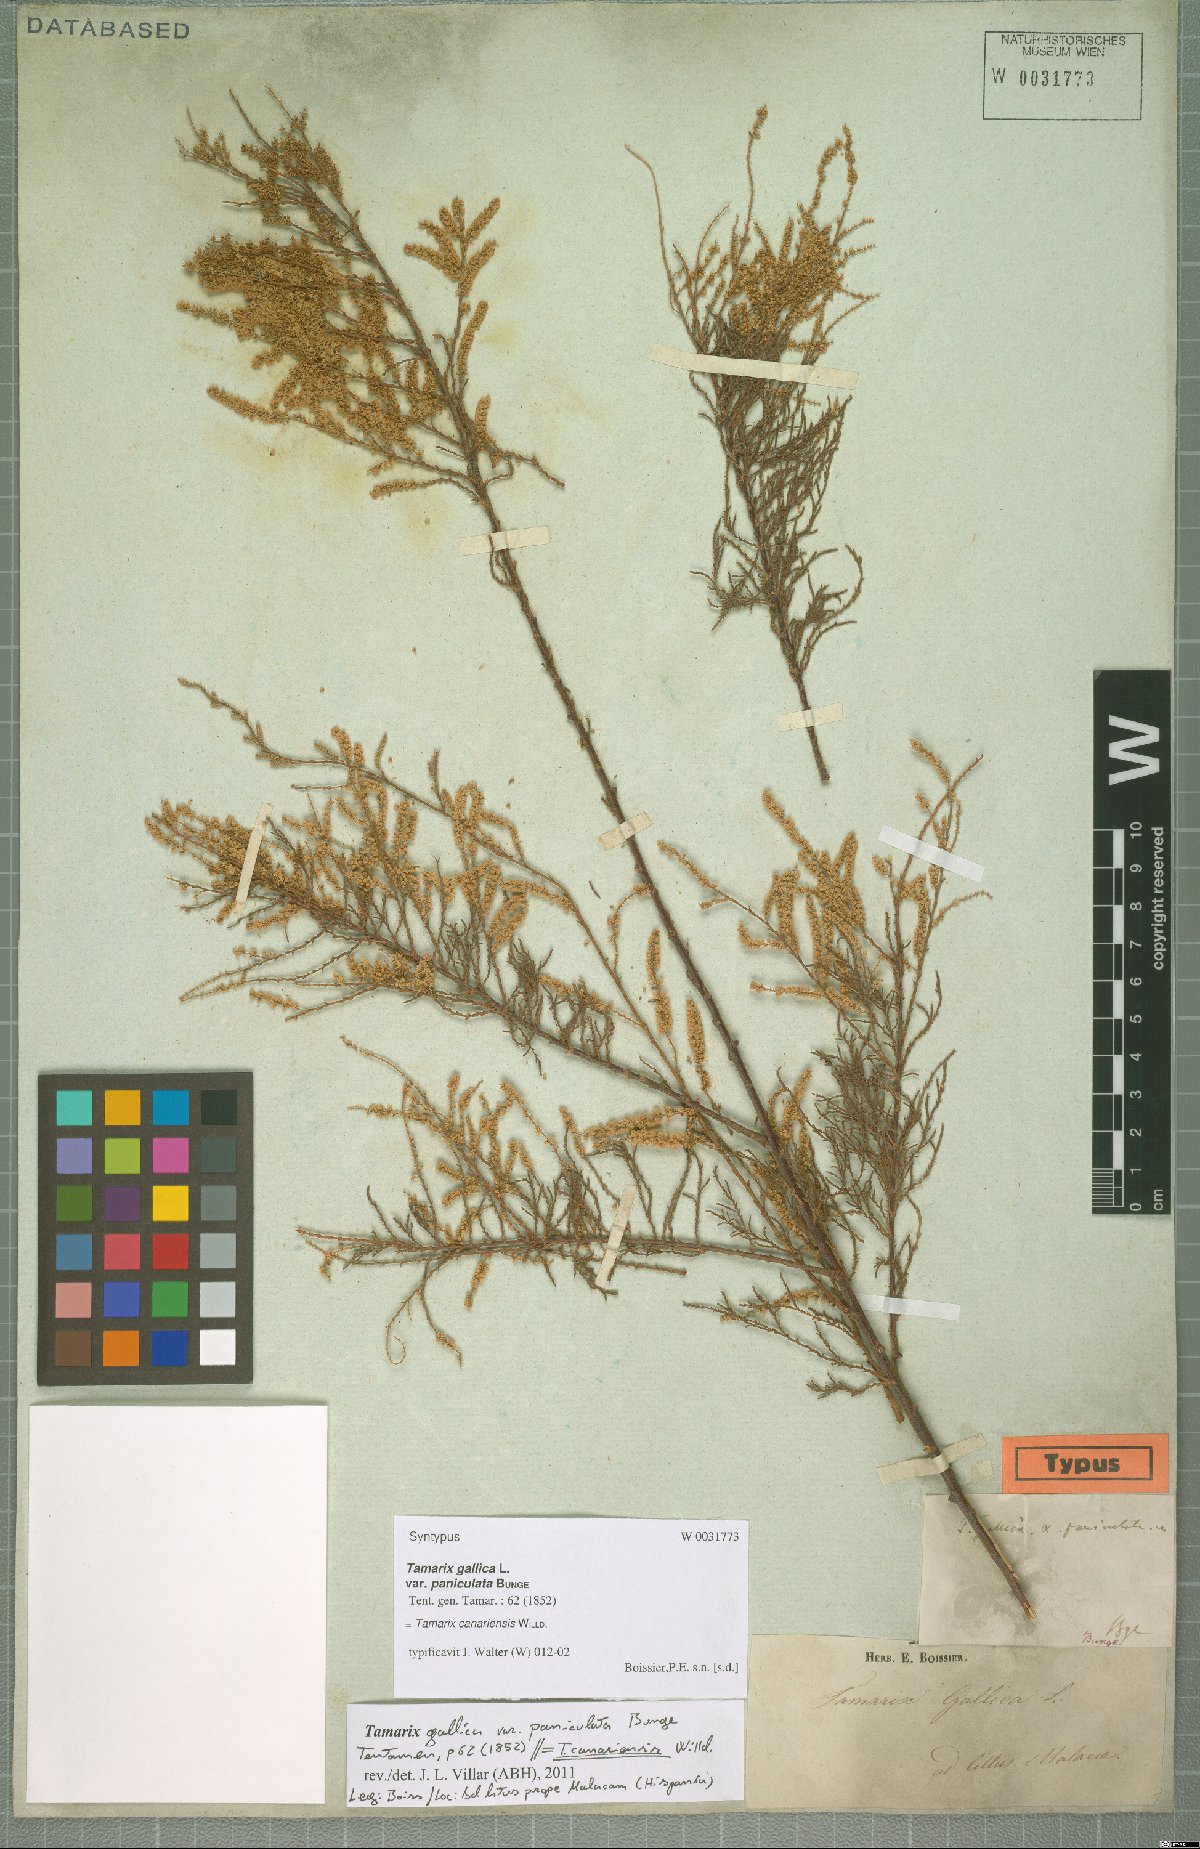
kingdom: Plantae
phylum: Tracheophyta
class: Magnoliopsida
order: Caryophyllales
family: Tamaricaceae
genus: Tamarix
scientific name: Tamarix canariensis
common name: Canary island tamarisk
